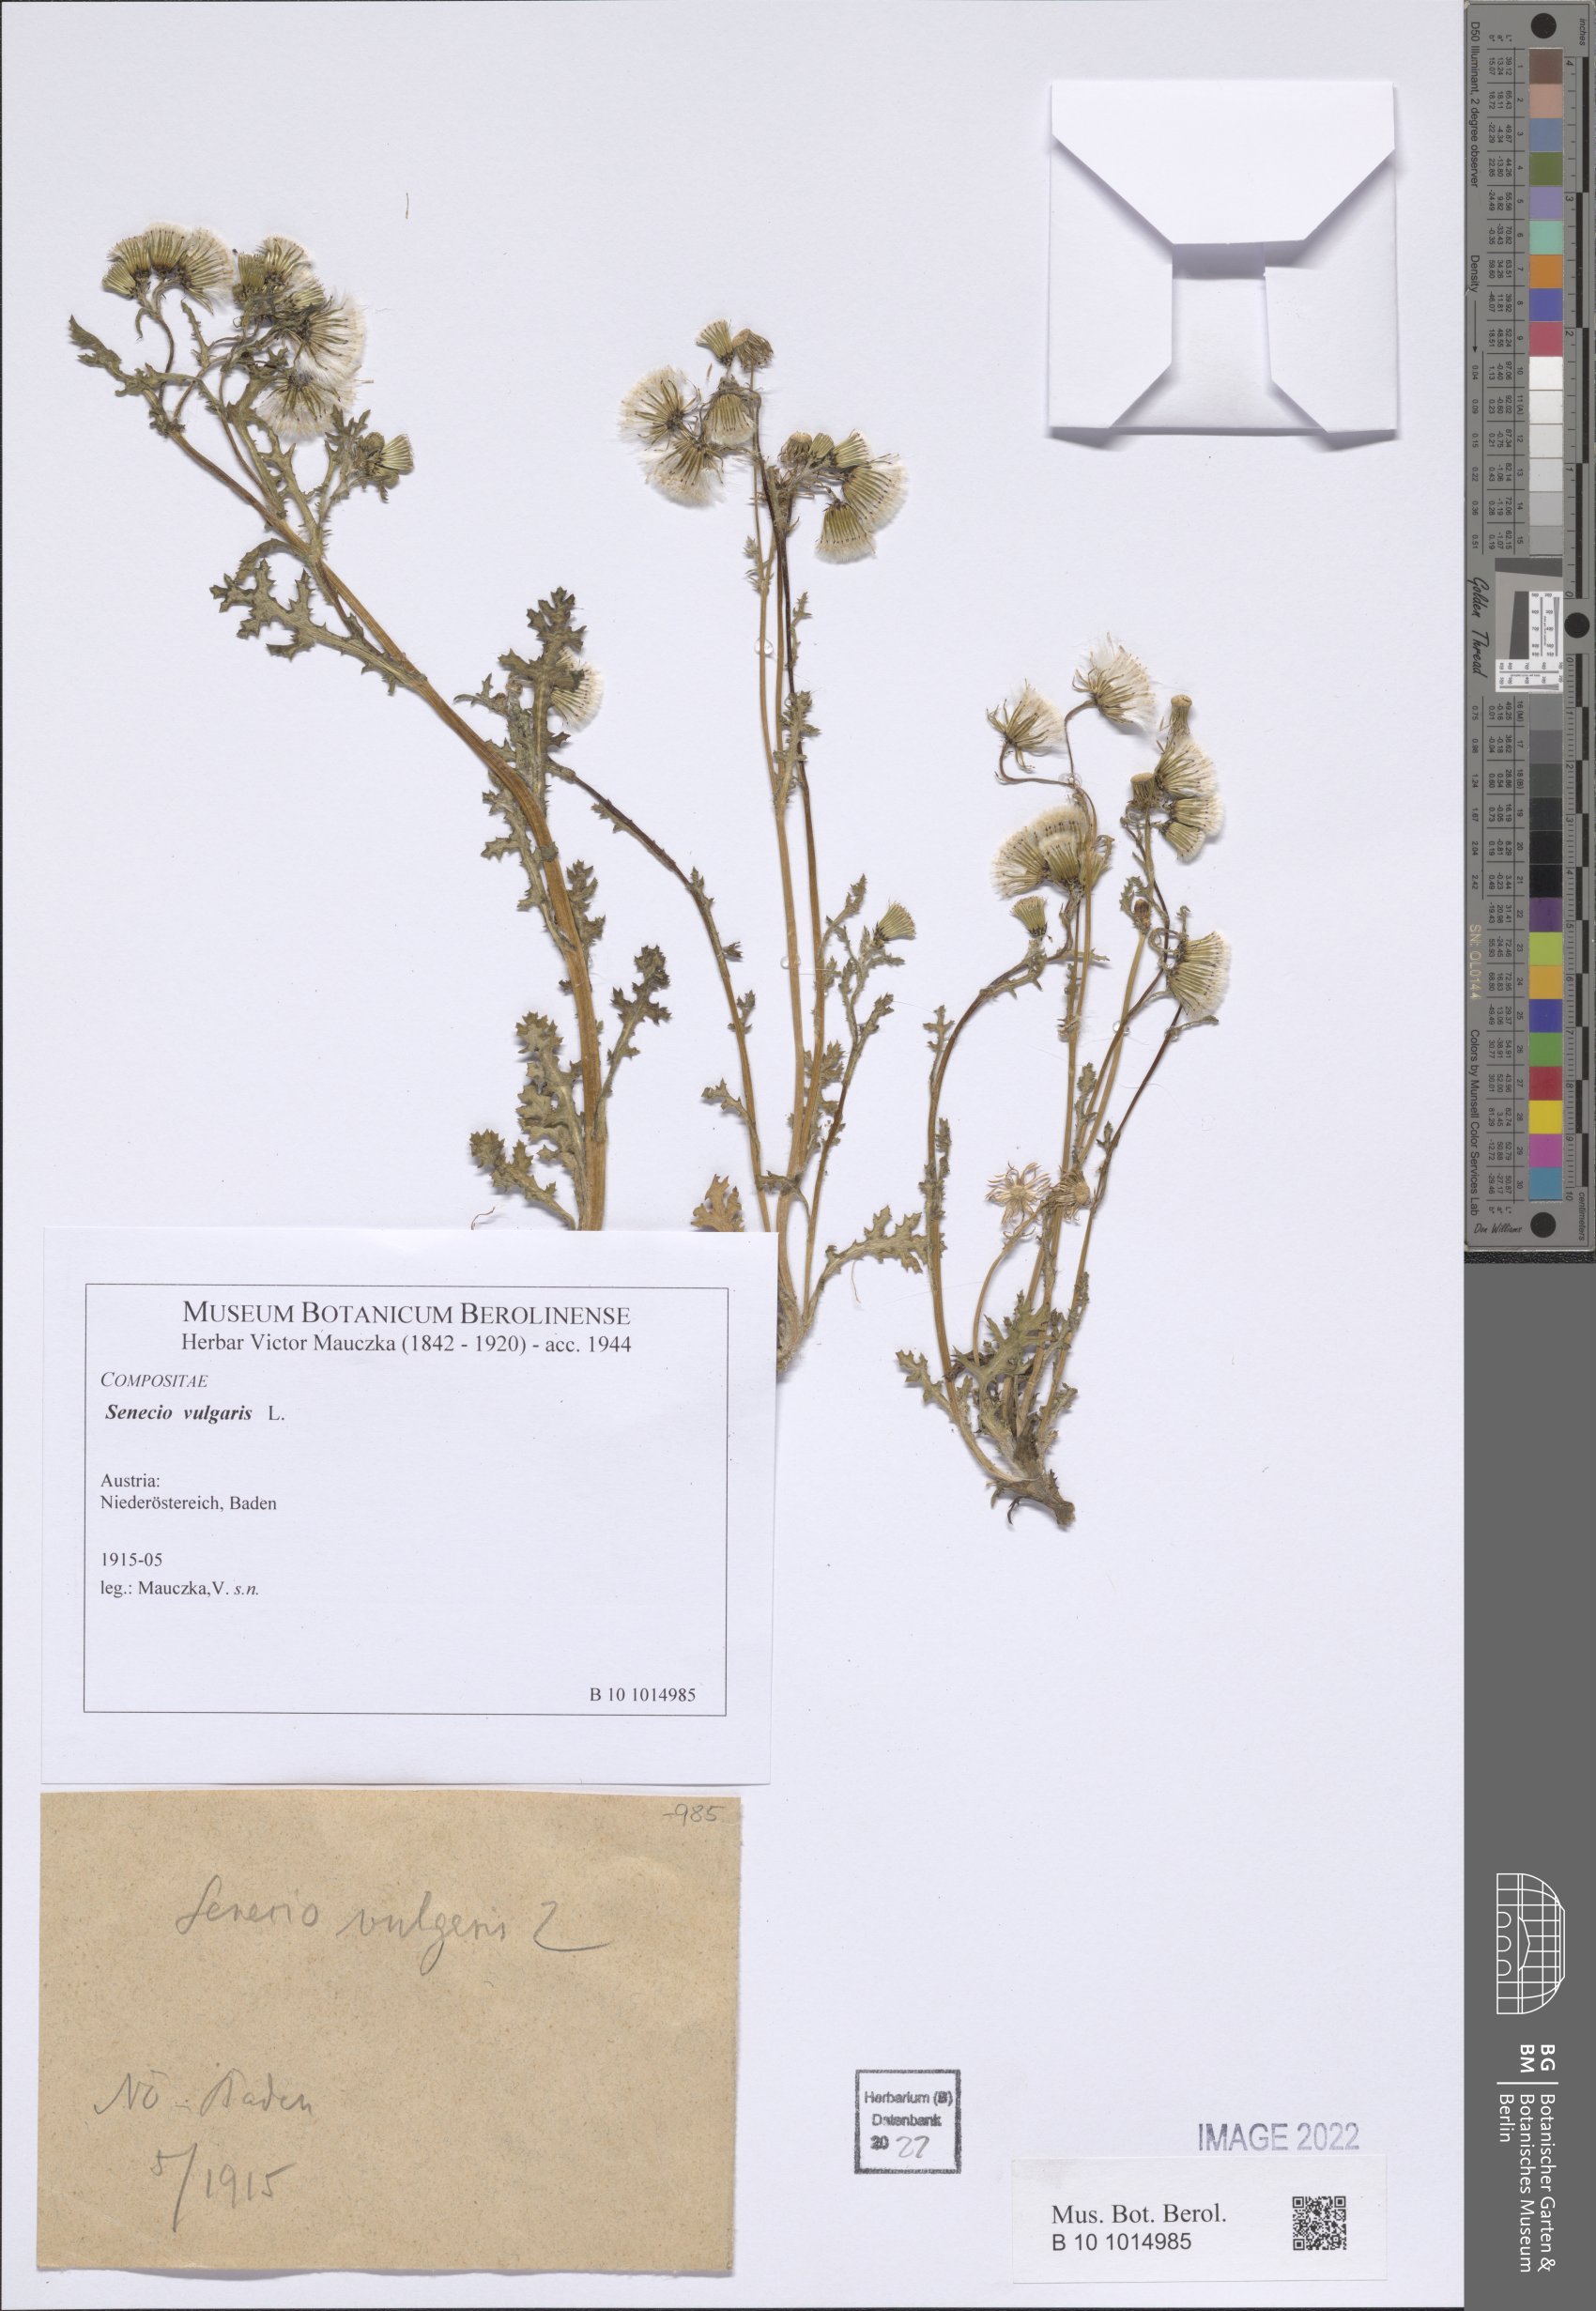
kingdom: Plantae
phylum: Tracheophyta
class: Magnoliopsida
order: Asterales
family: Asteraceae
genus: Senecio
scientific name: Senecio vulgaris
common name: Old-man-in-the-spring
